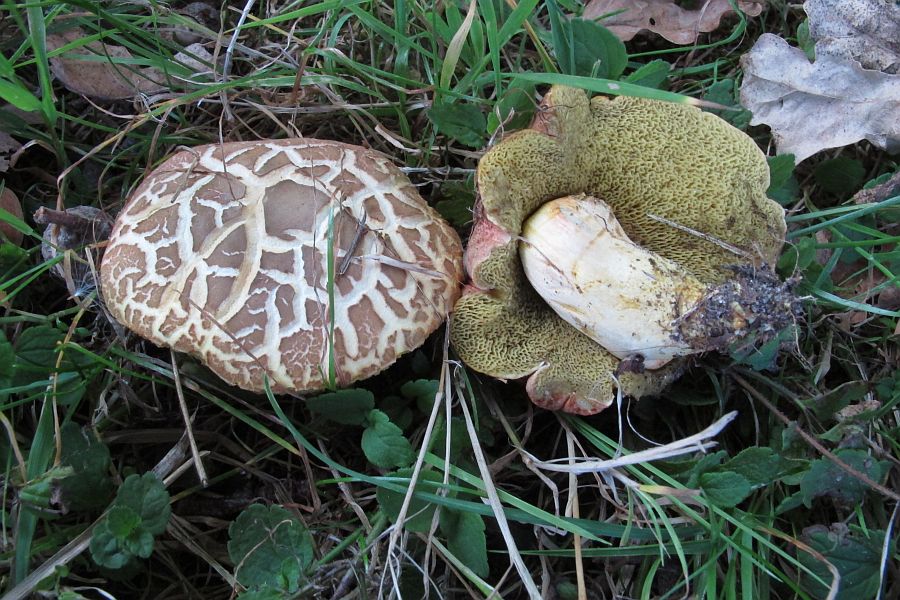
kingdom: Fungi
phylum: Basidiomycota
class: Agaricomycetes
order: Boletales
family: Boletaceae
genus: Hortiboletus
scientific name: Hortiboletus engelii
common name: fersken-rørhat
